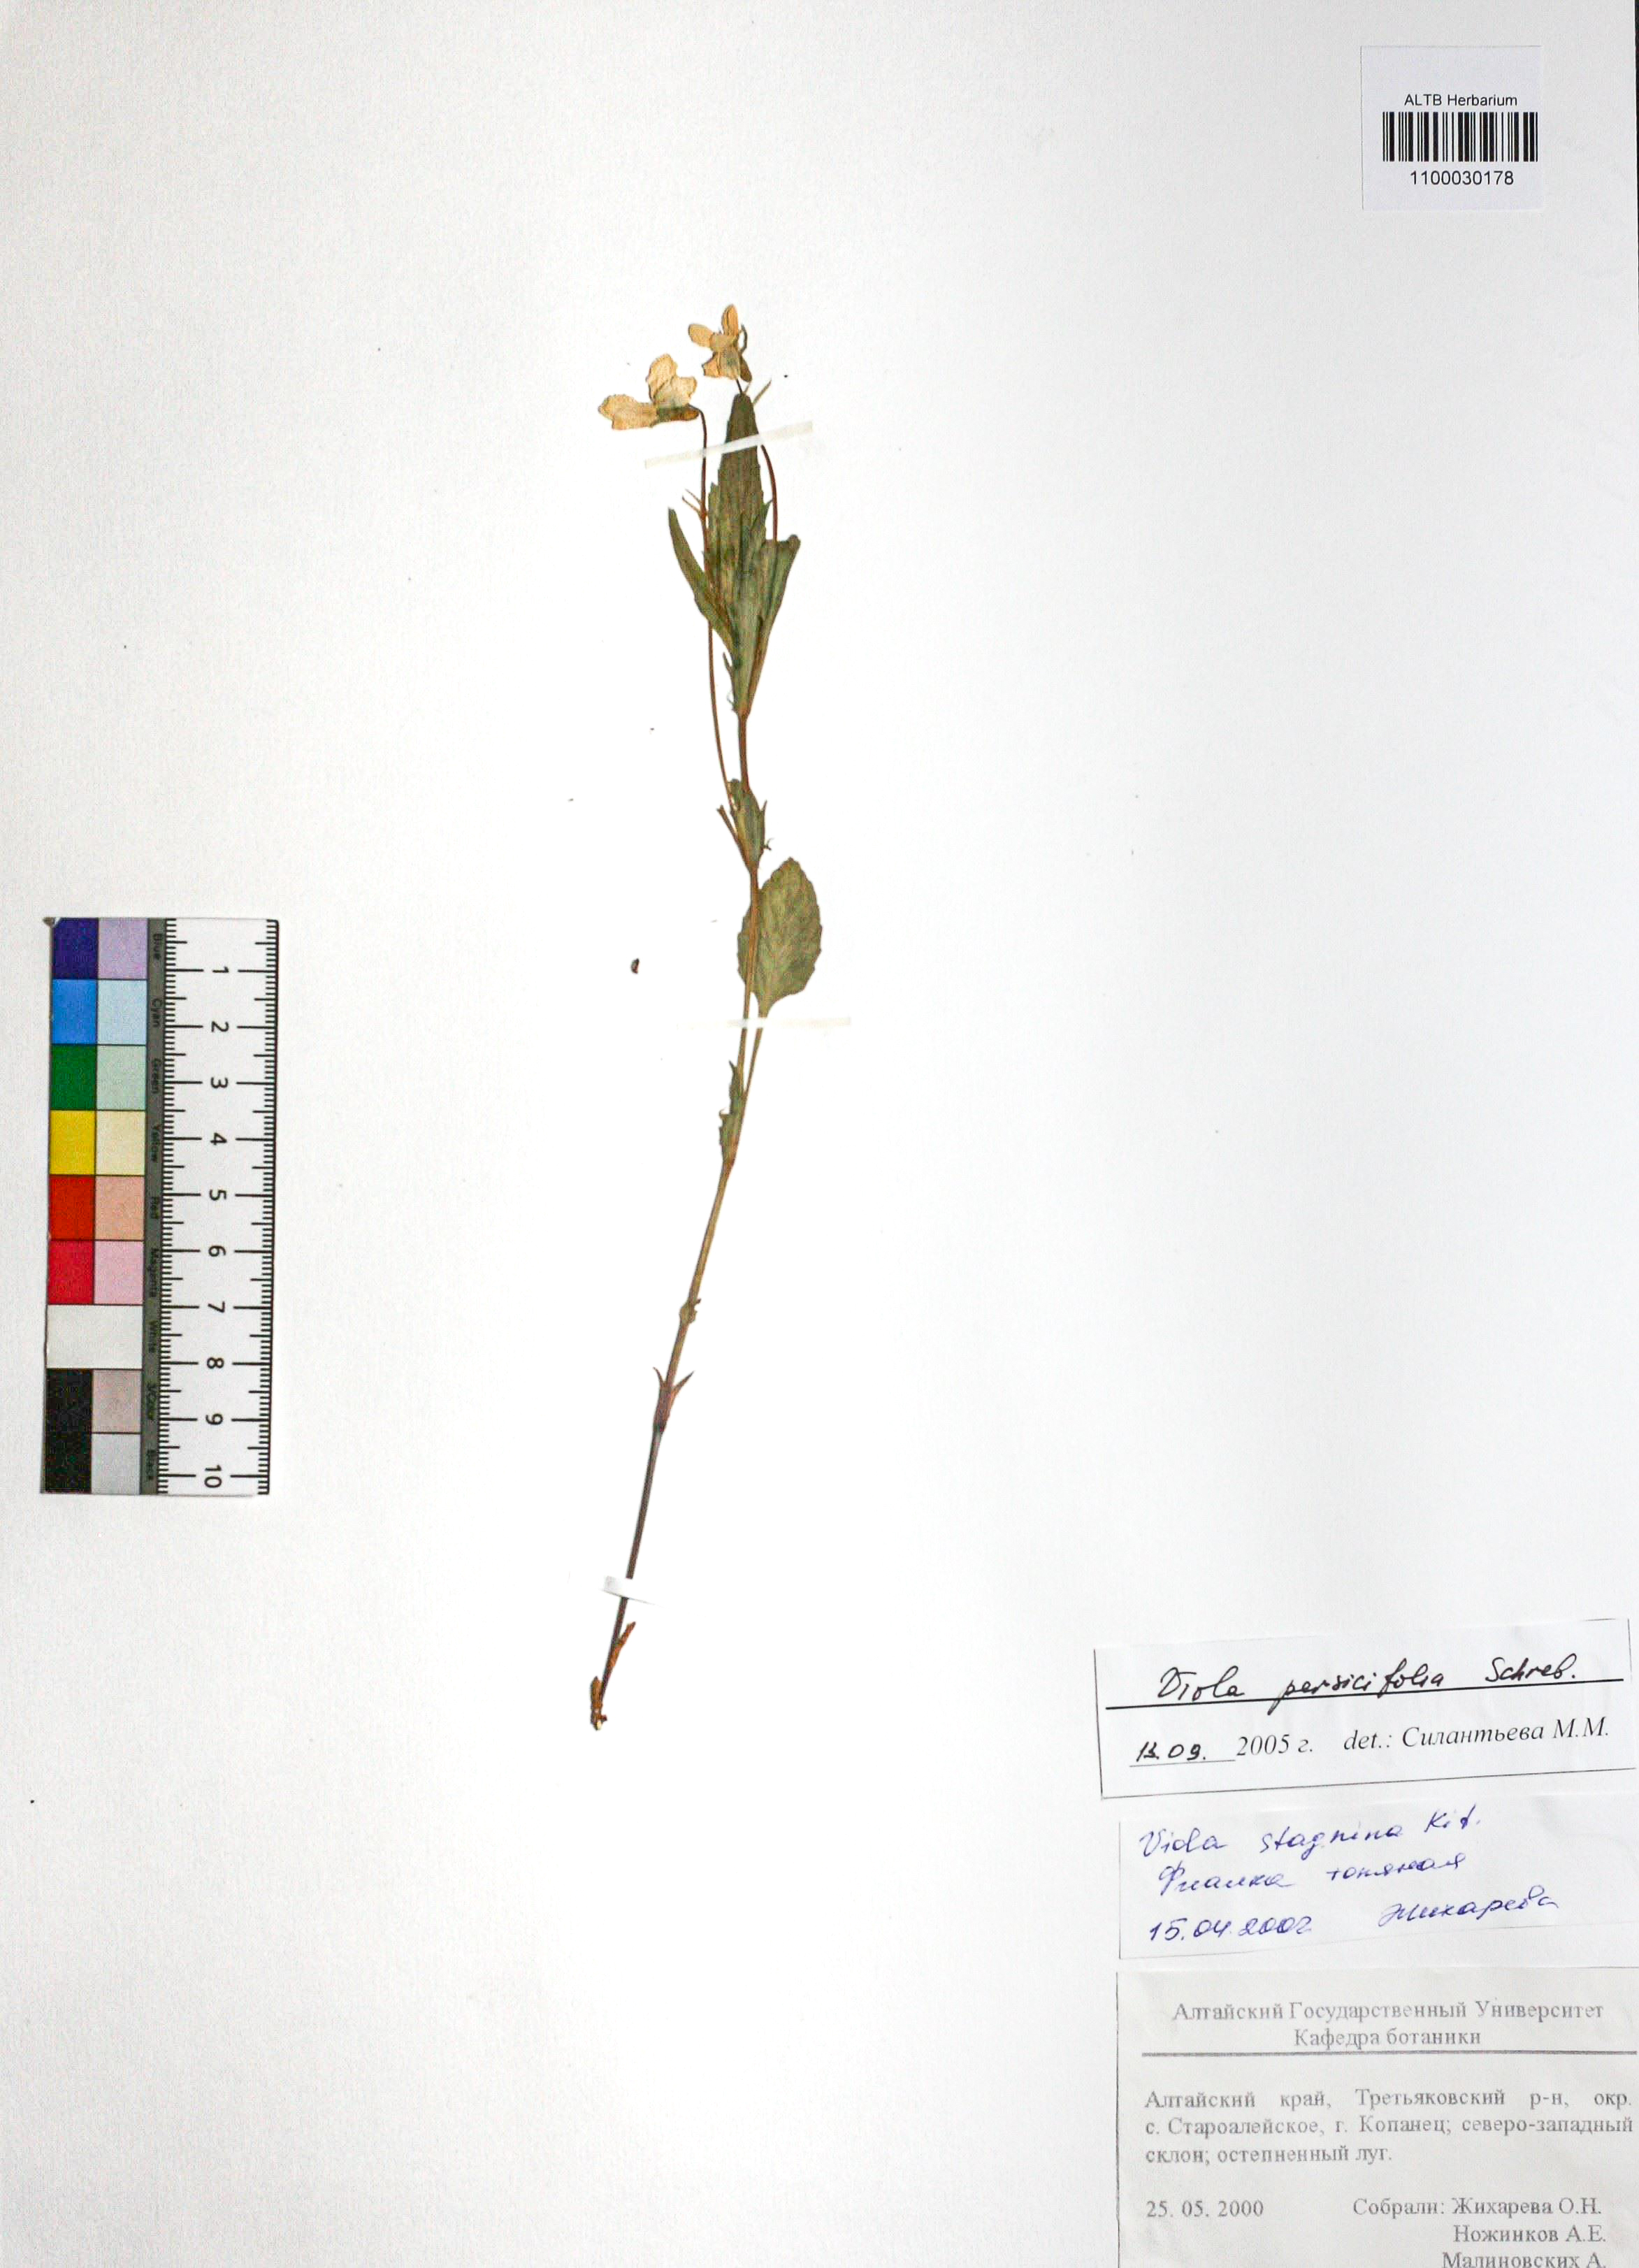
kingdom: Plantae
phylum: Tracheophyta
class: Magnoliopsida
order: Malpighiales
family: Violaceae
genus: Viola
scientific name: Viola stagnina
